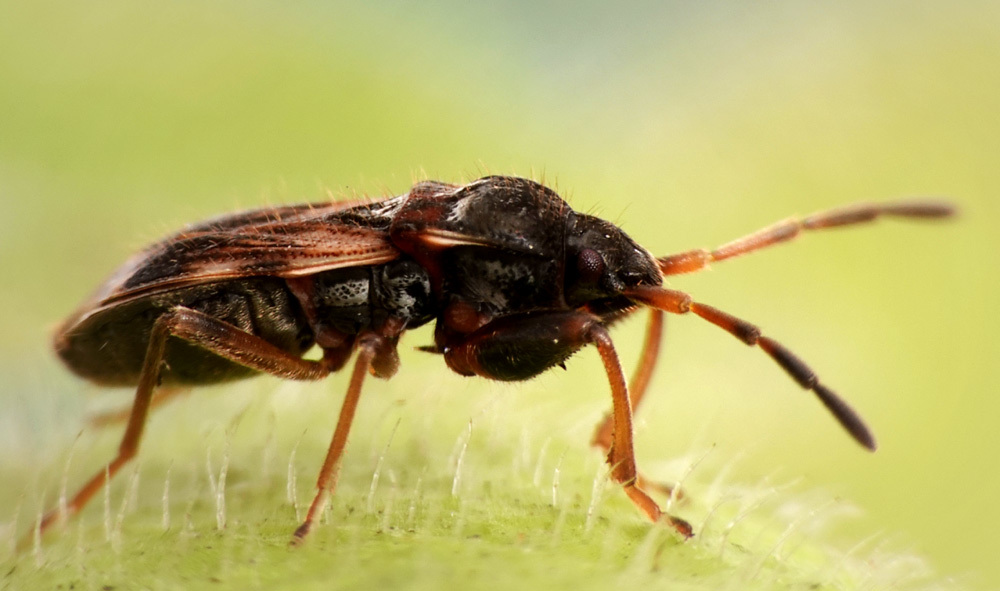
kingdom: Animalia
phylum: Arthropoda
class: Insecta
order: Hemiptera
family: Rhyparochromidae
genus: Scolopostethus
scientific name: Scolopostethus pilosus
